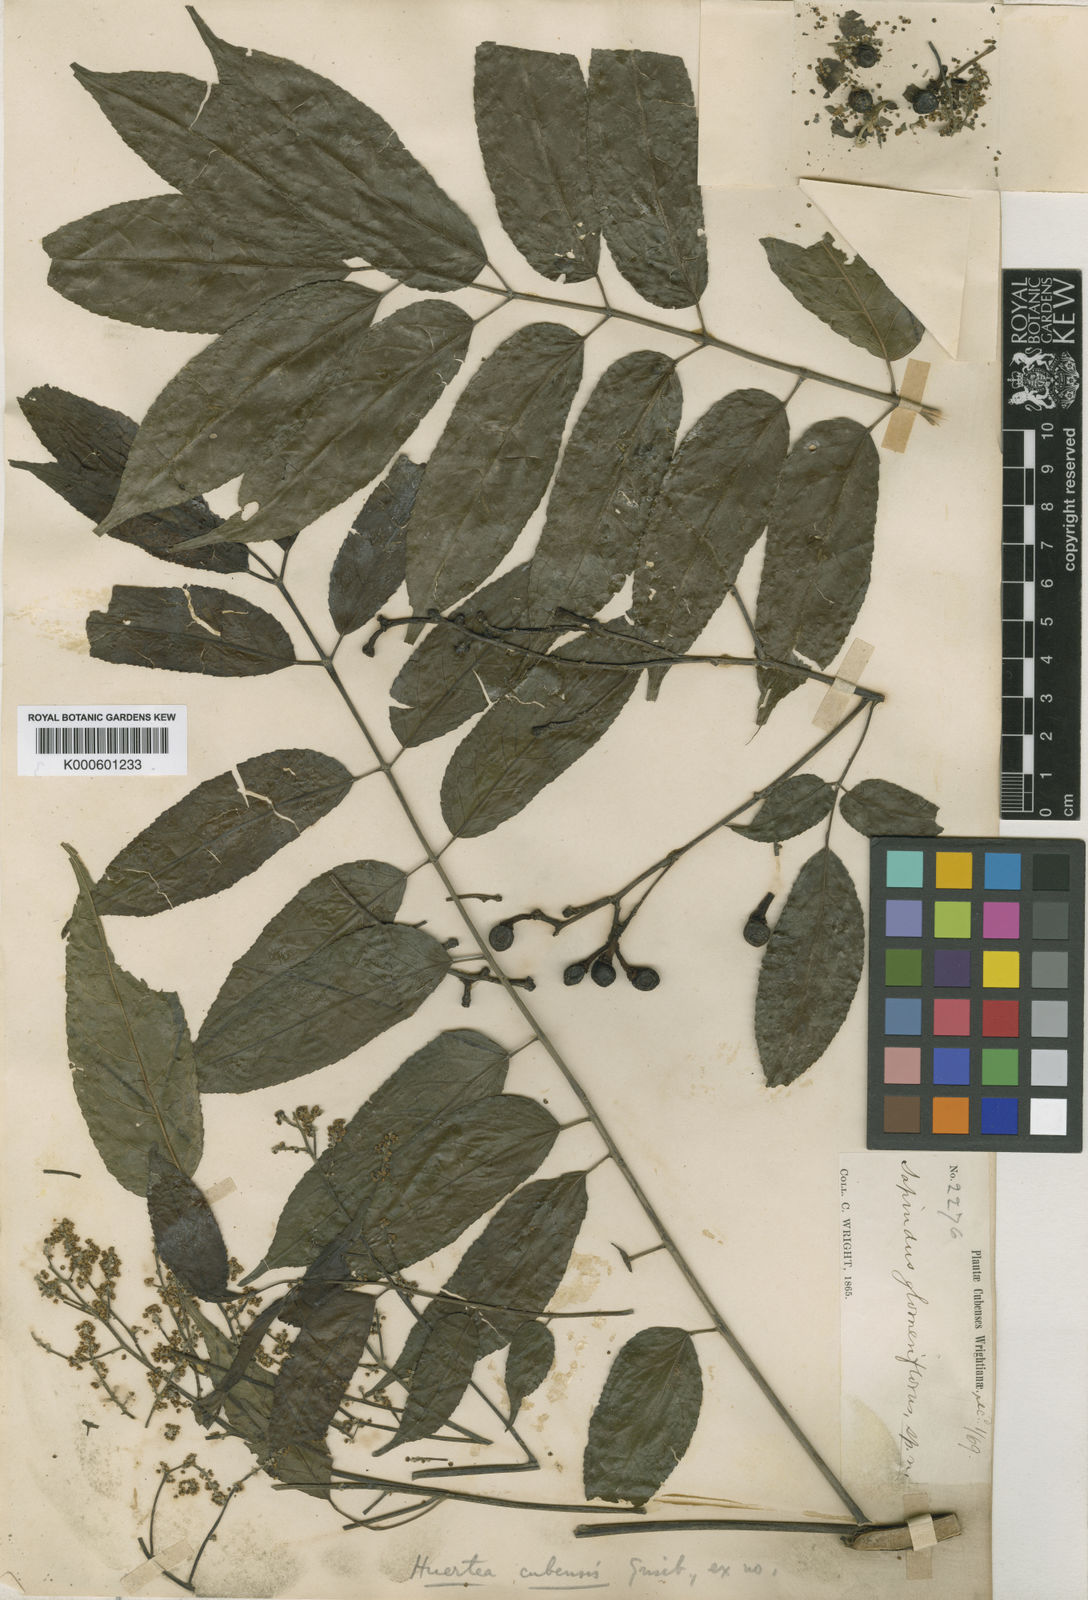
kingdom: Plantae
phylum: Tracheophyta
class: Magnoliopsida
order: Huerteales
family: Tapisciaceae
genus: Huertea
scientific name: Huertea cubensis
